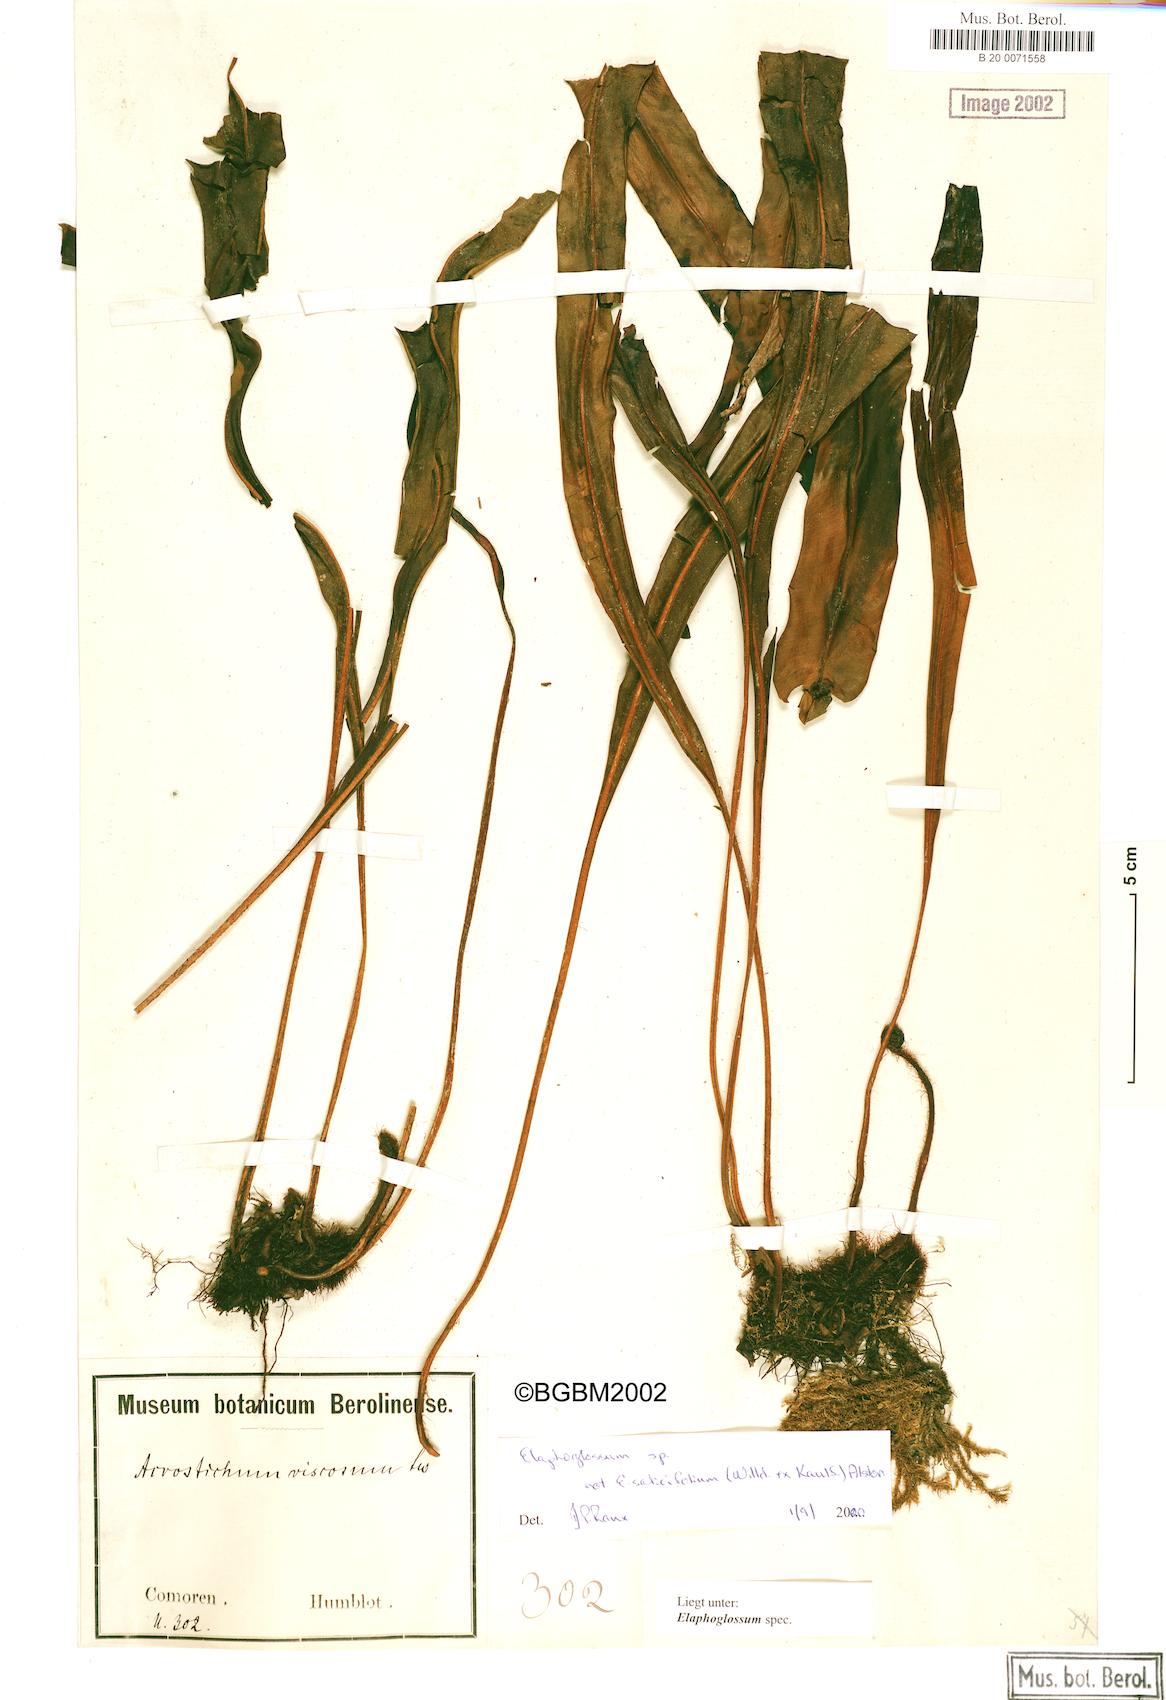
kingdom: Plantae
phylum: Tracheophyta
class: Polypodiopsida
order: Polypodiales
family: Dryopteridaceae
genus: Elaphoglossum
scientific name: Elaphoglossum
